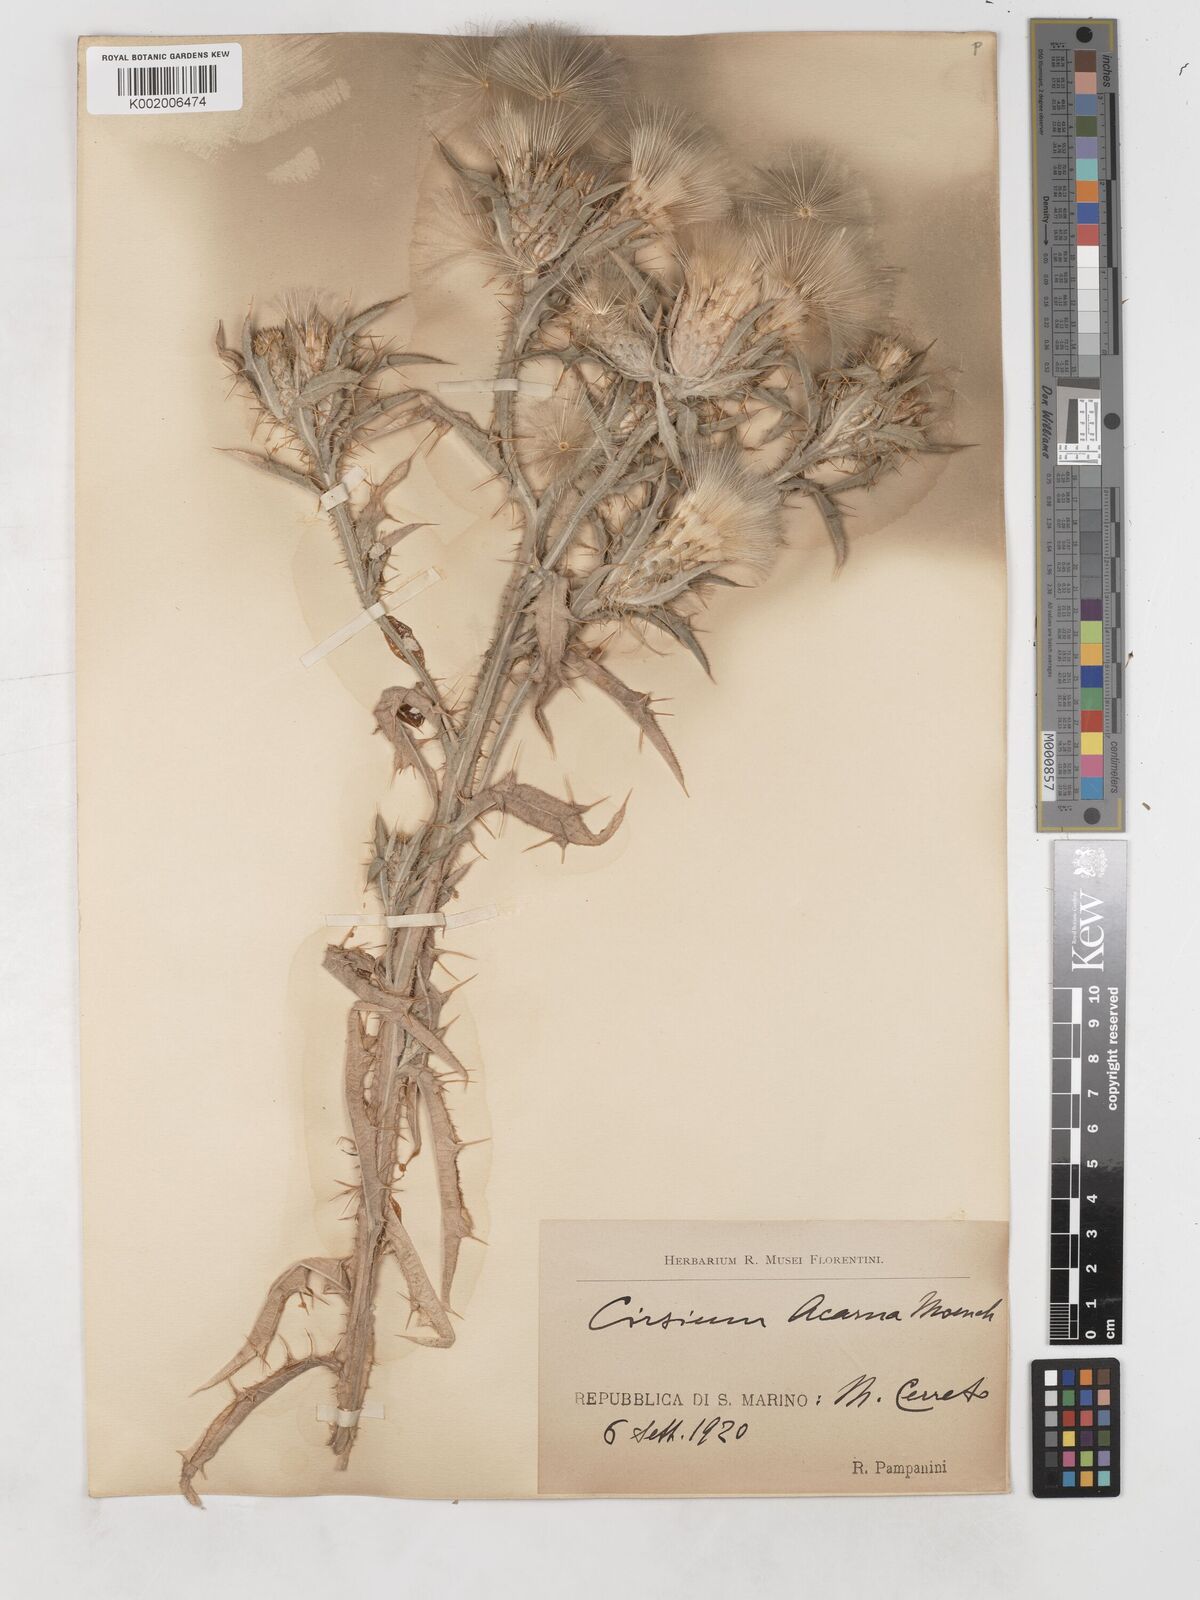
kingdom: Plantae
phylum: Tracheophyta
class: Magnoliopsida
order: Asterales
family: Asteraceae
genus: Picnomon
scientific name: Picnomon
